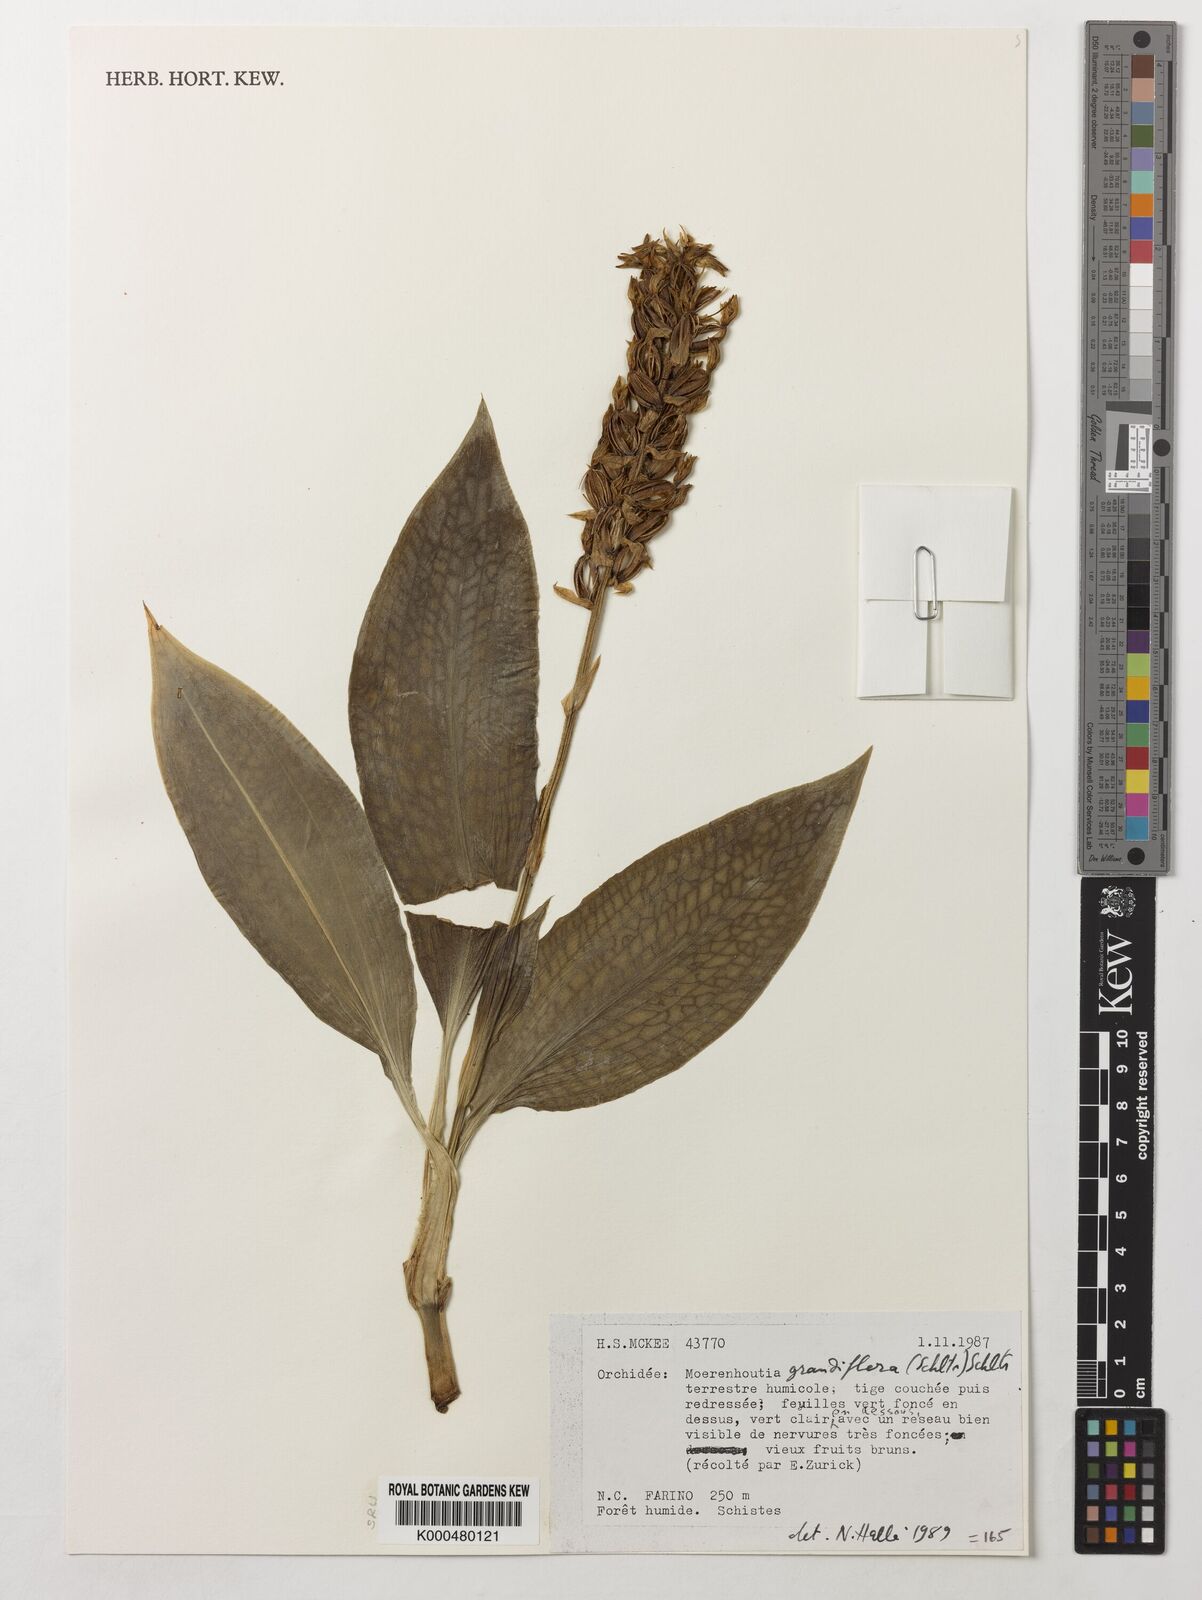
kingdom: Plantae
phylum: Tracheophyta
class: Liliopsida
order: Asparagales
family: Orchidaceae
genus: Platylepis
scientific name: Platylepis grandiflora
